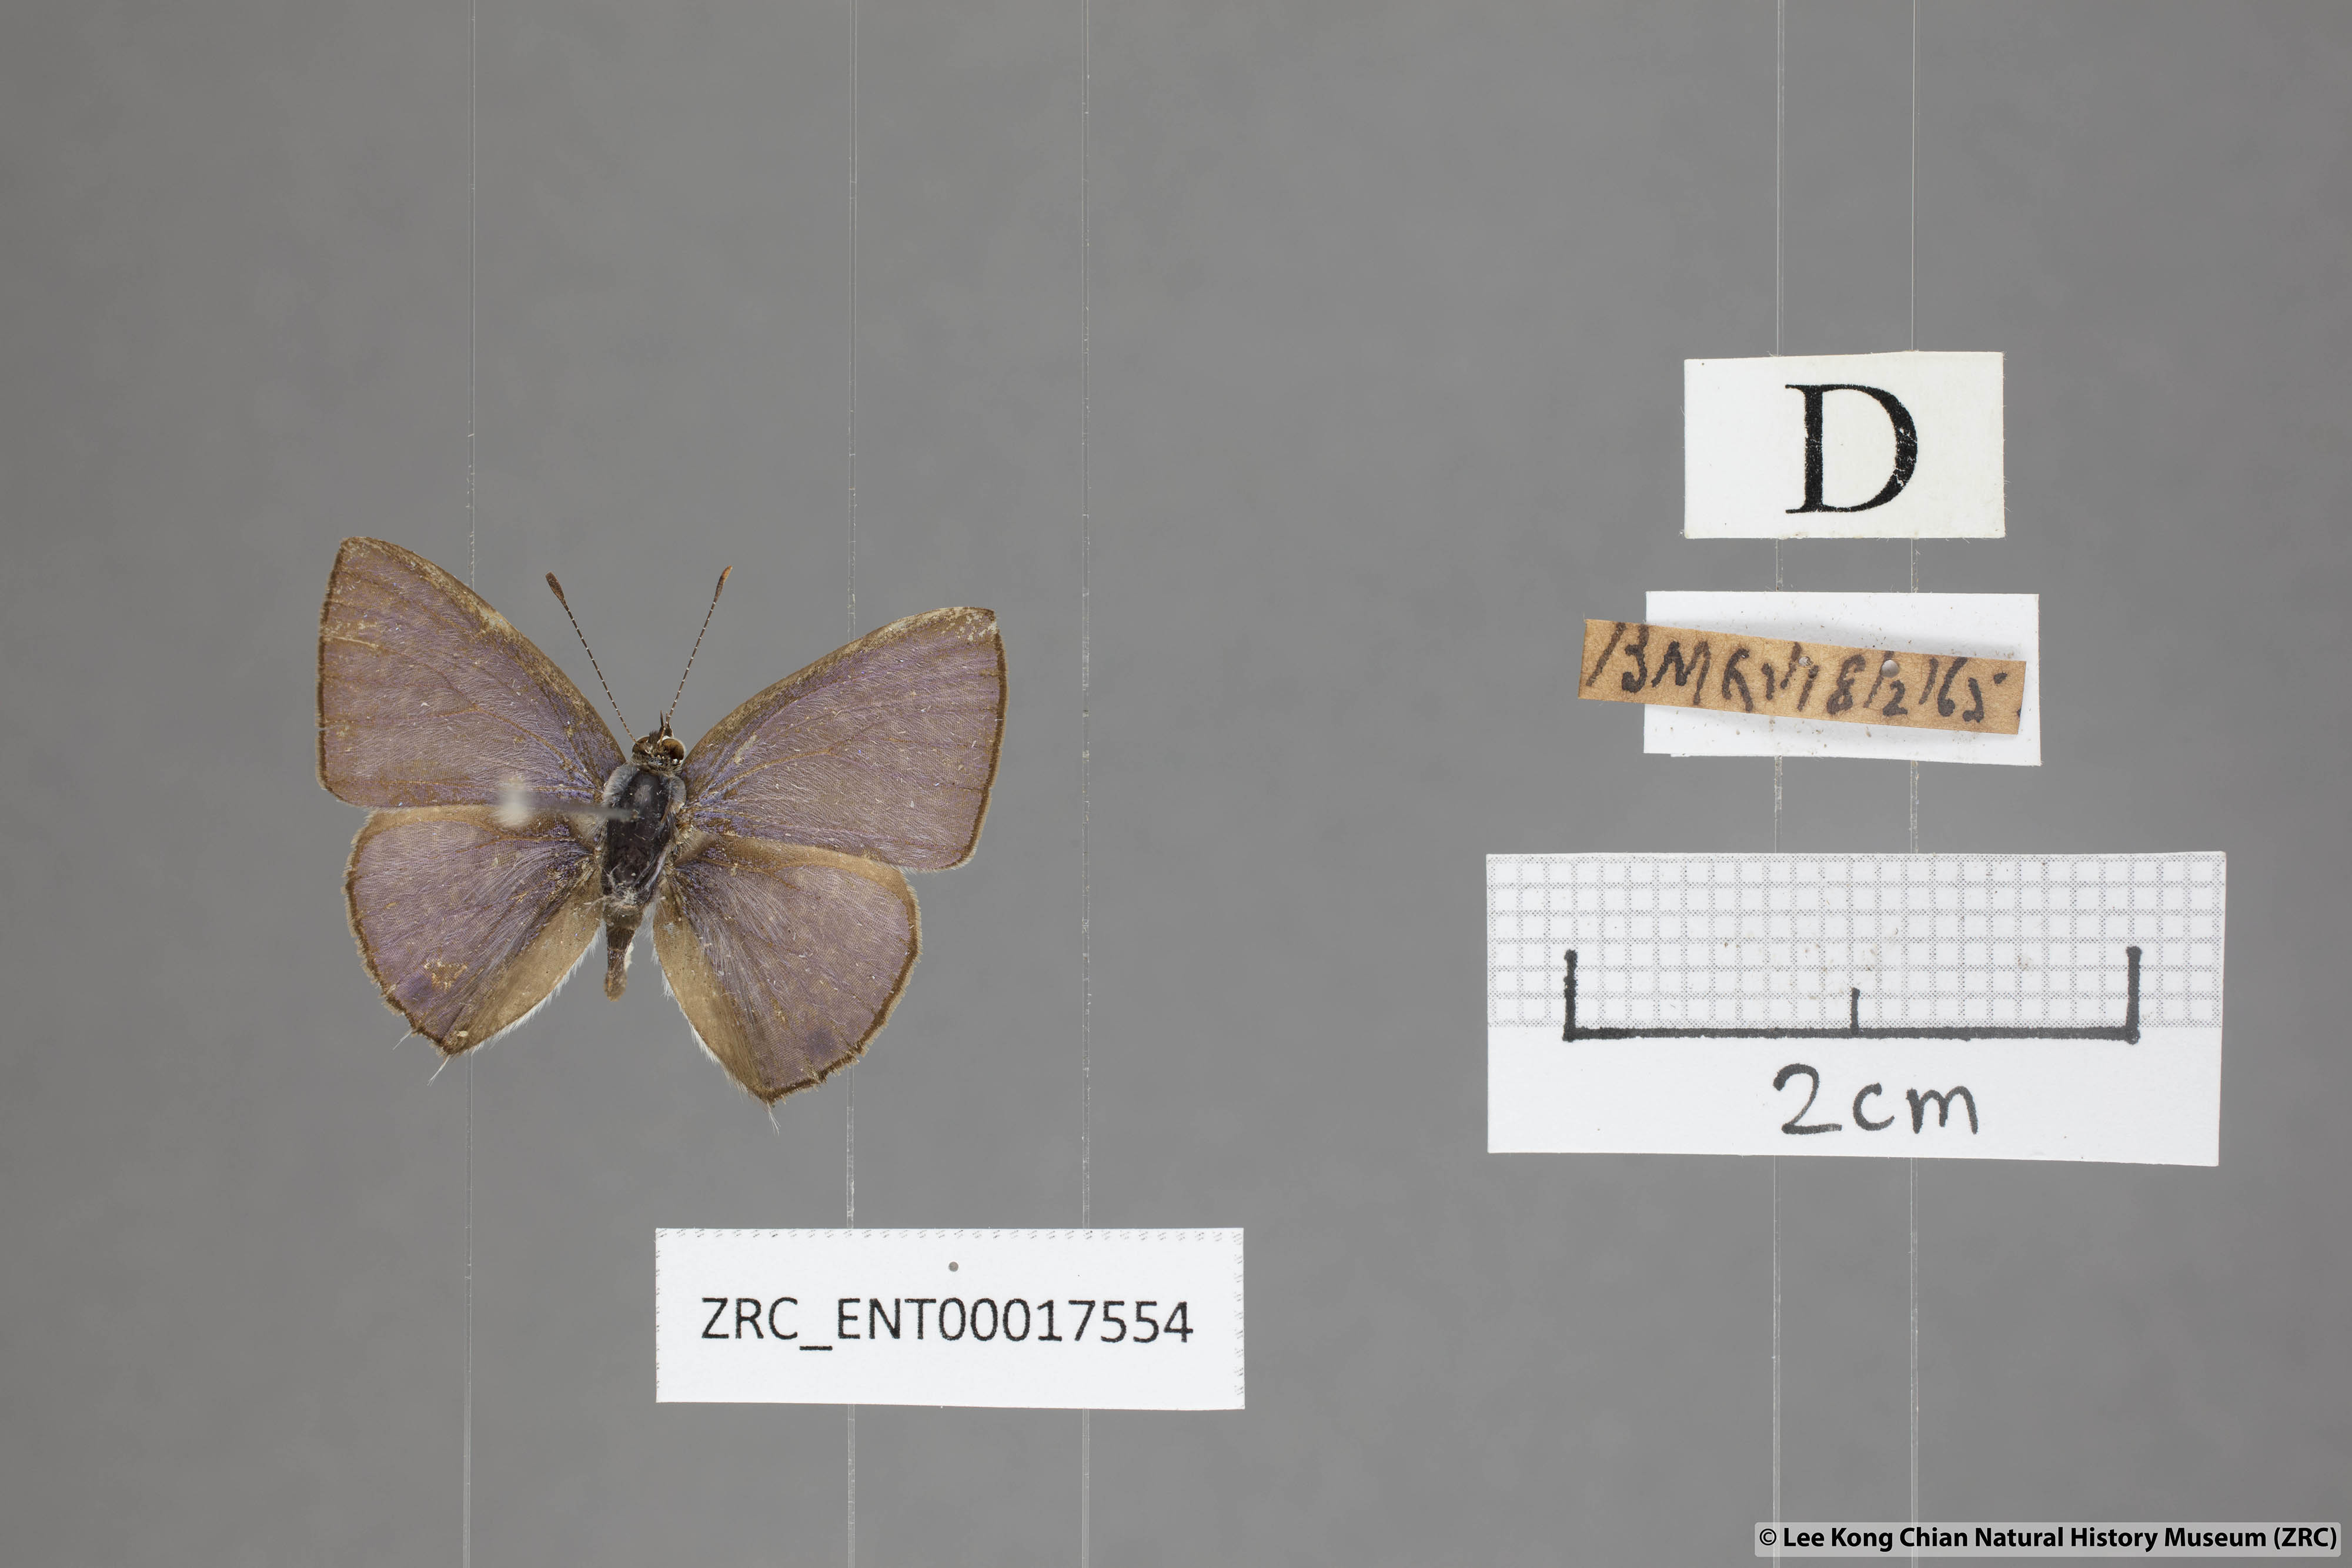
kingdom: Animalia
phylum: Arthropoda
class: Insecta
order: Lepidoptera
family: Lycaenidae
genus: Anthene
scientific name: Anthene lycaenoides
